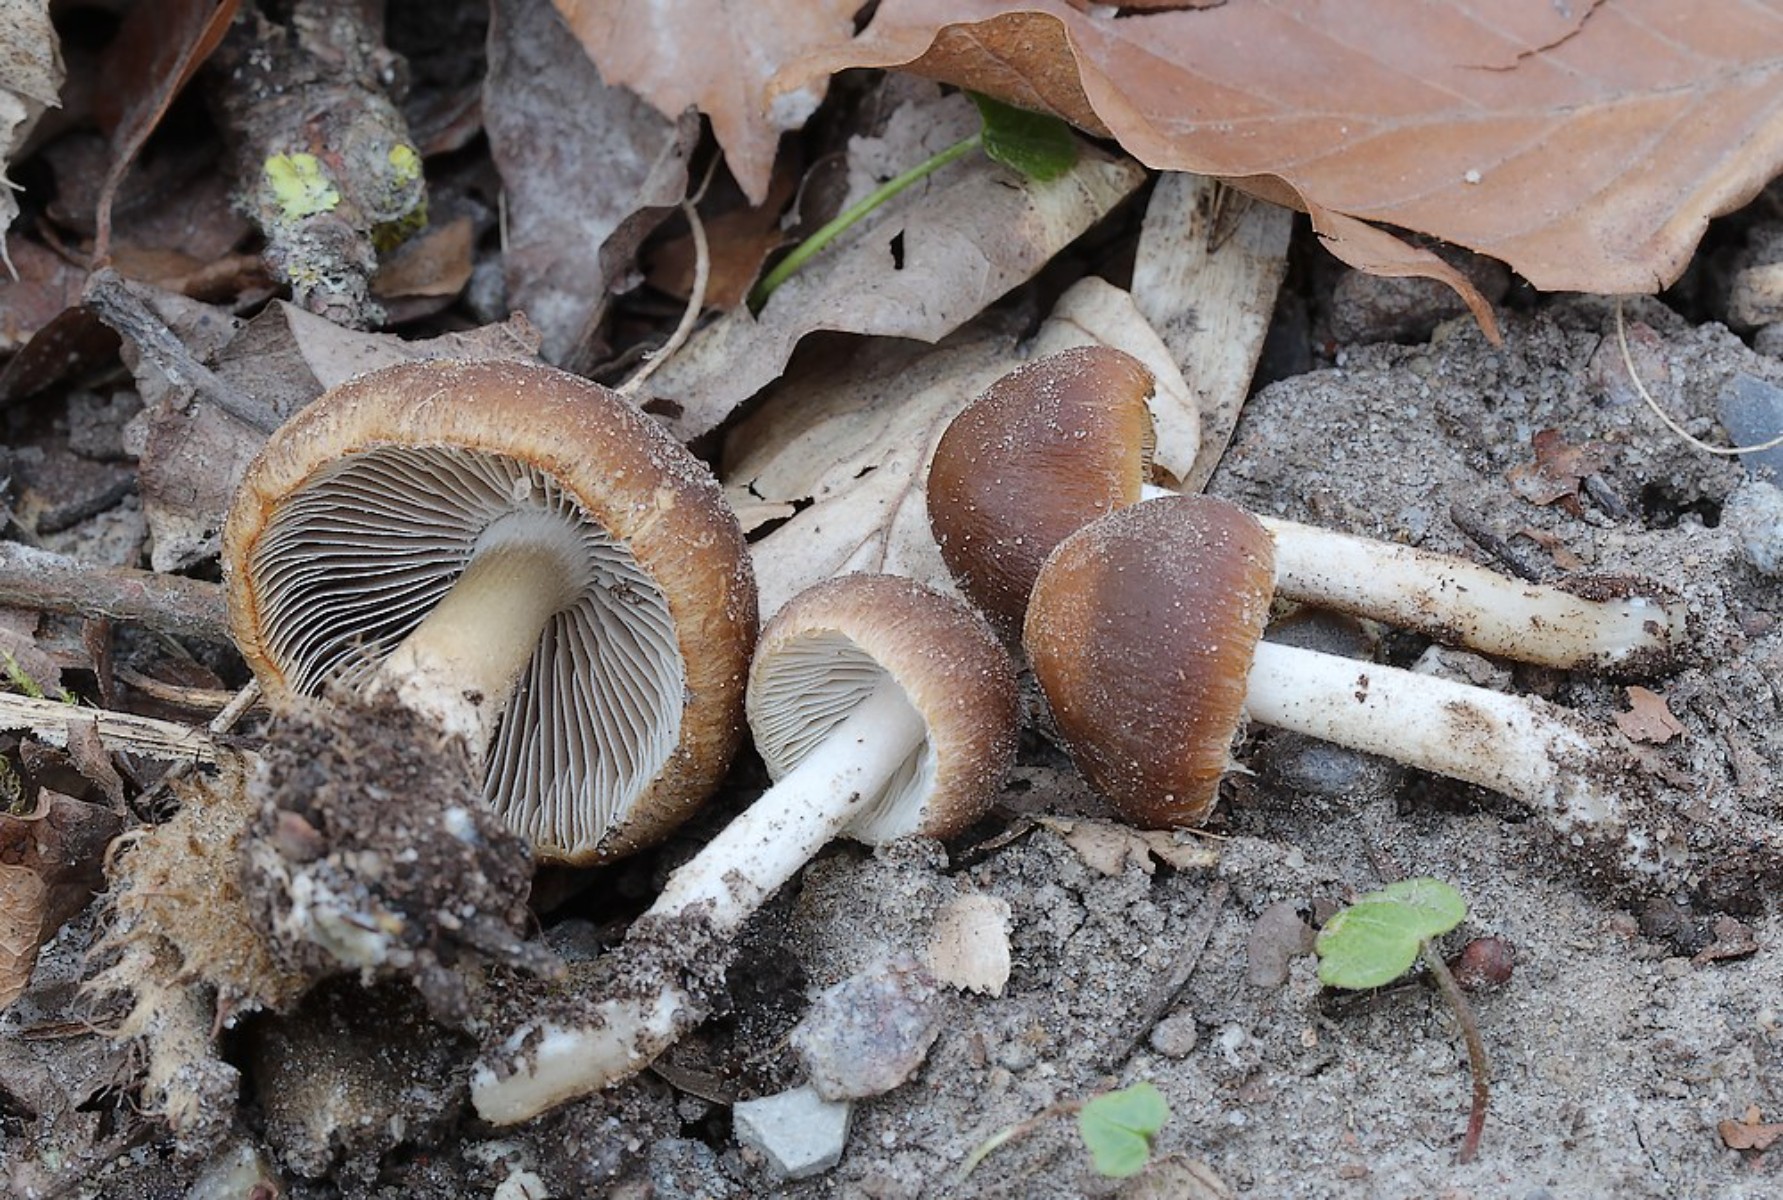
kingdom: Fungi
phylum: Basidiomycota
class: Agaricomycetes
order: Agaricales
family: Psathyrellaceae
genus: Psathyrella
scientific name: Psathyrella
